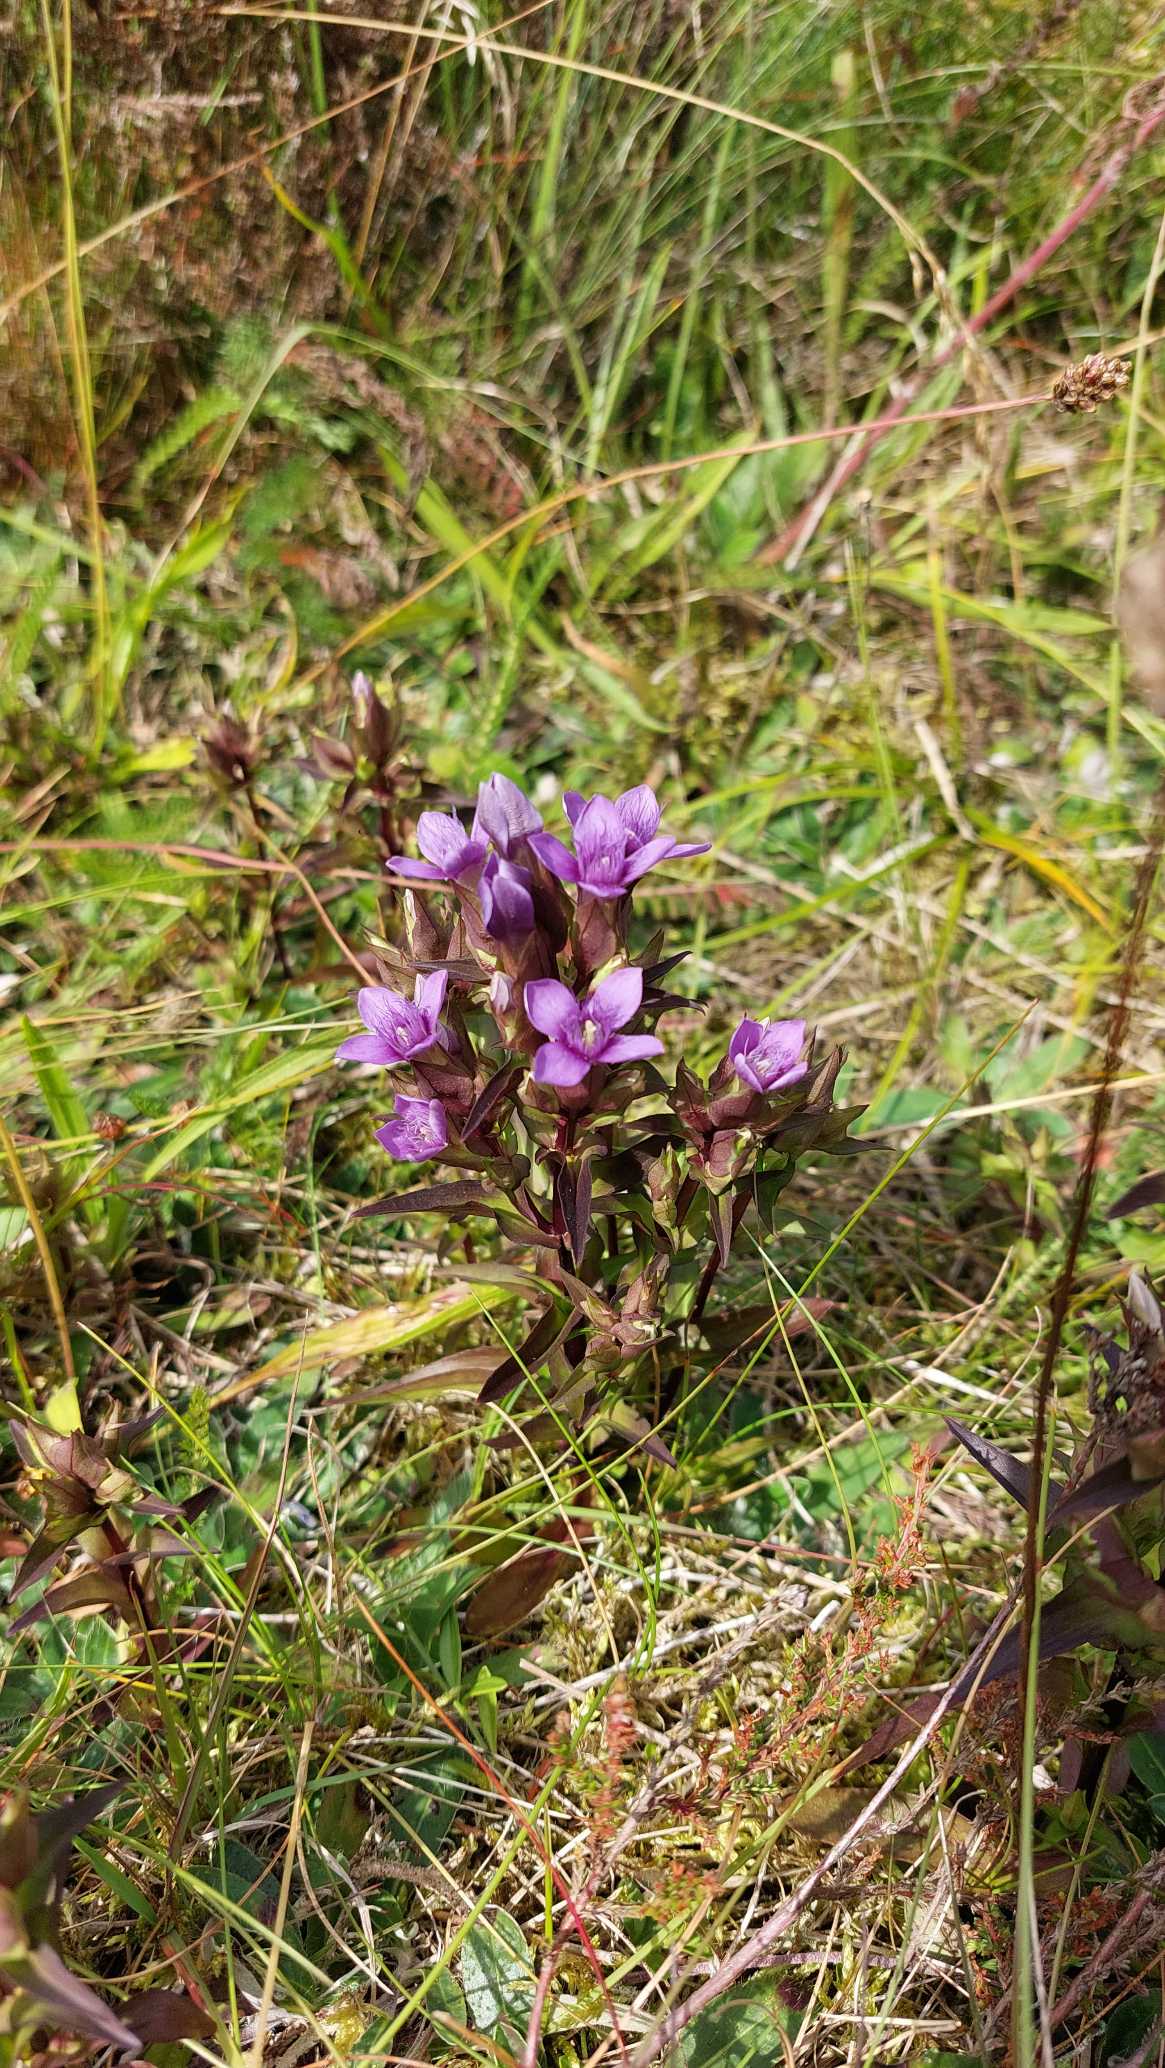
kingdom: Plantae
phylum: Tracheophyta
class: Magnoliopsida
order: Gentianales
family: Gentianaceae
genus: Gentianella
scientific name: Gentianella campestris
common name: Bredbægret ensian
